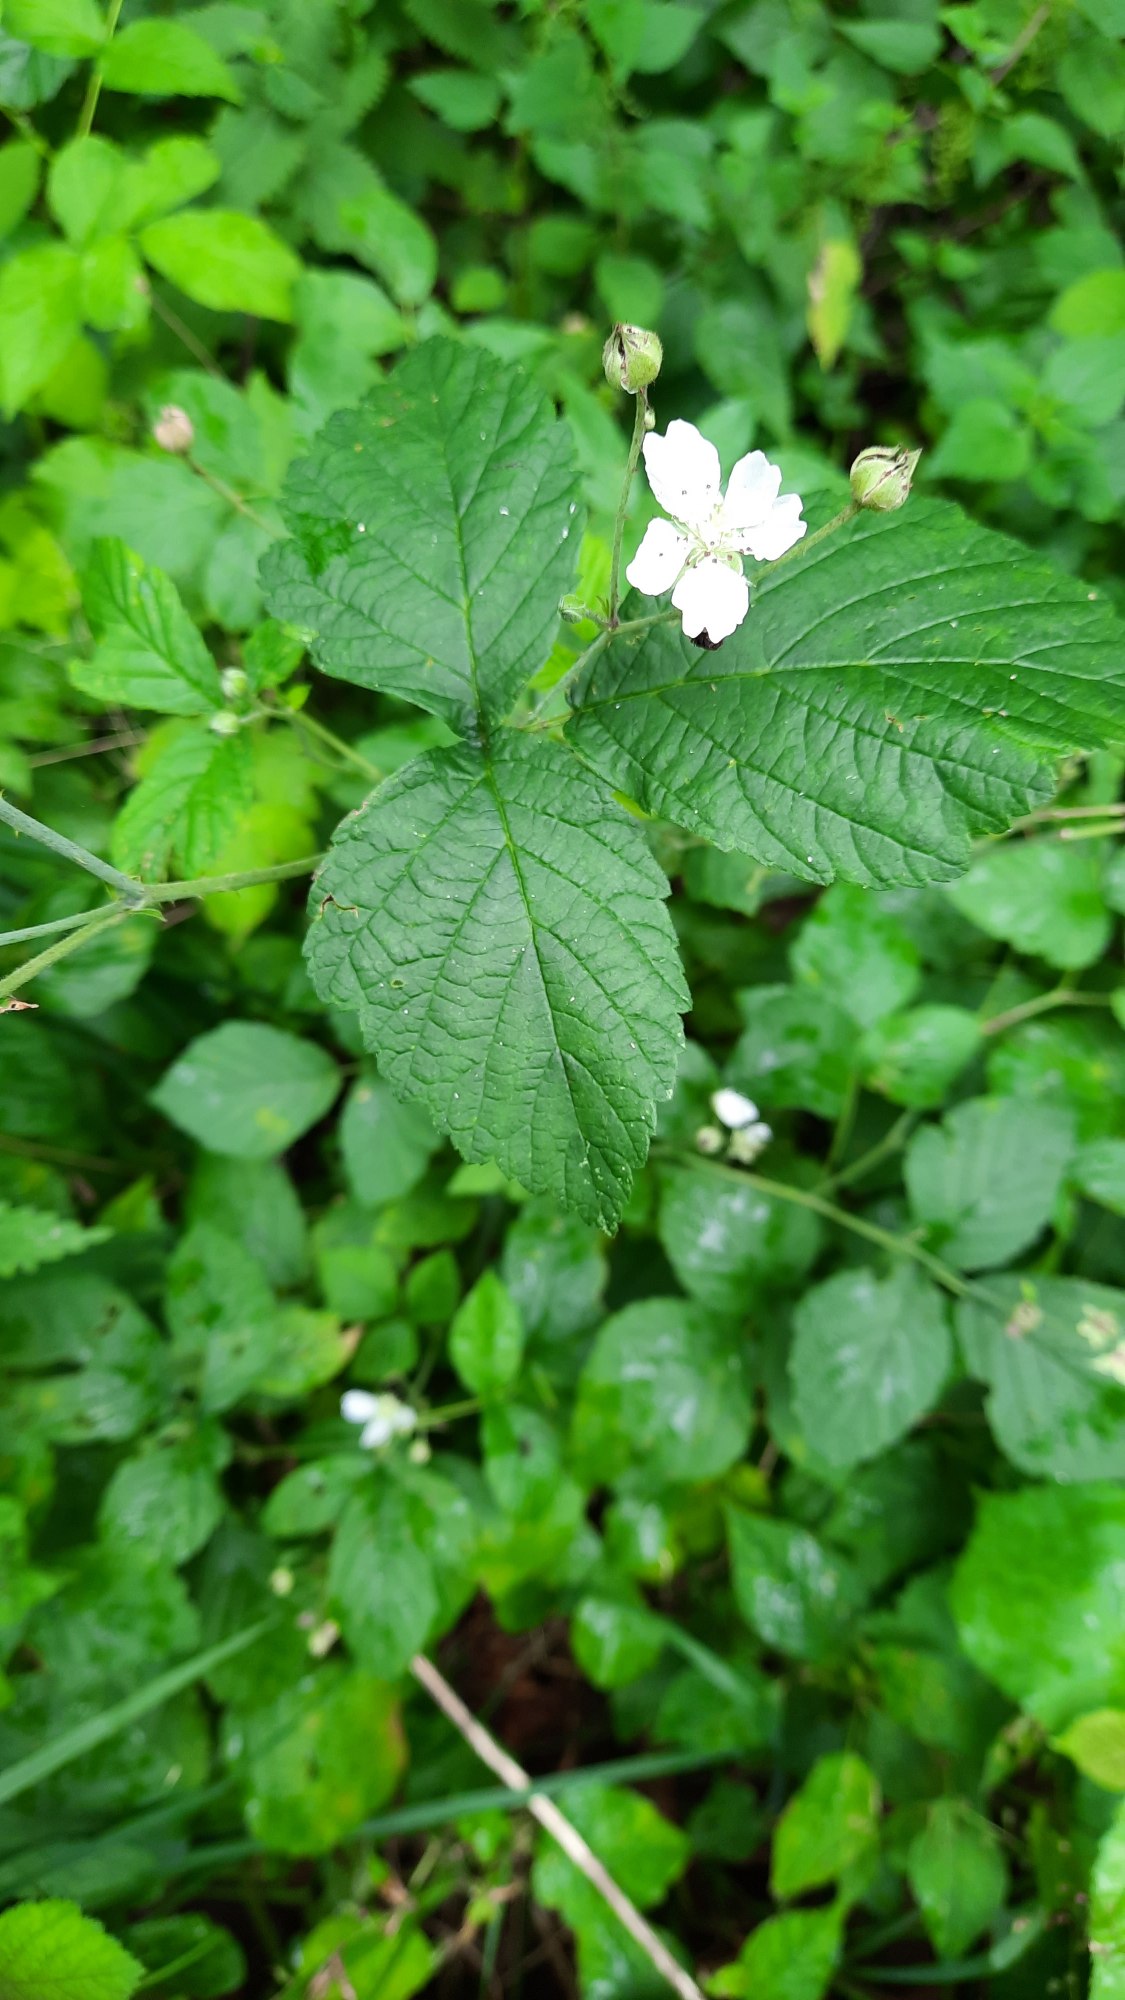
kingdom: Plantae
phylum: Tracheophyta
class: Magnoliopsida
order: Rosales
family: Rosaceae
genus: Rubus
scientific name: Rubus caesius
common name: Korbær
